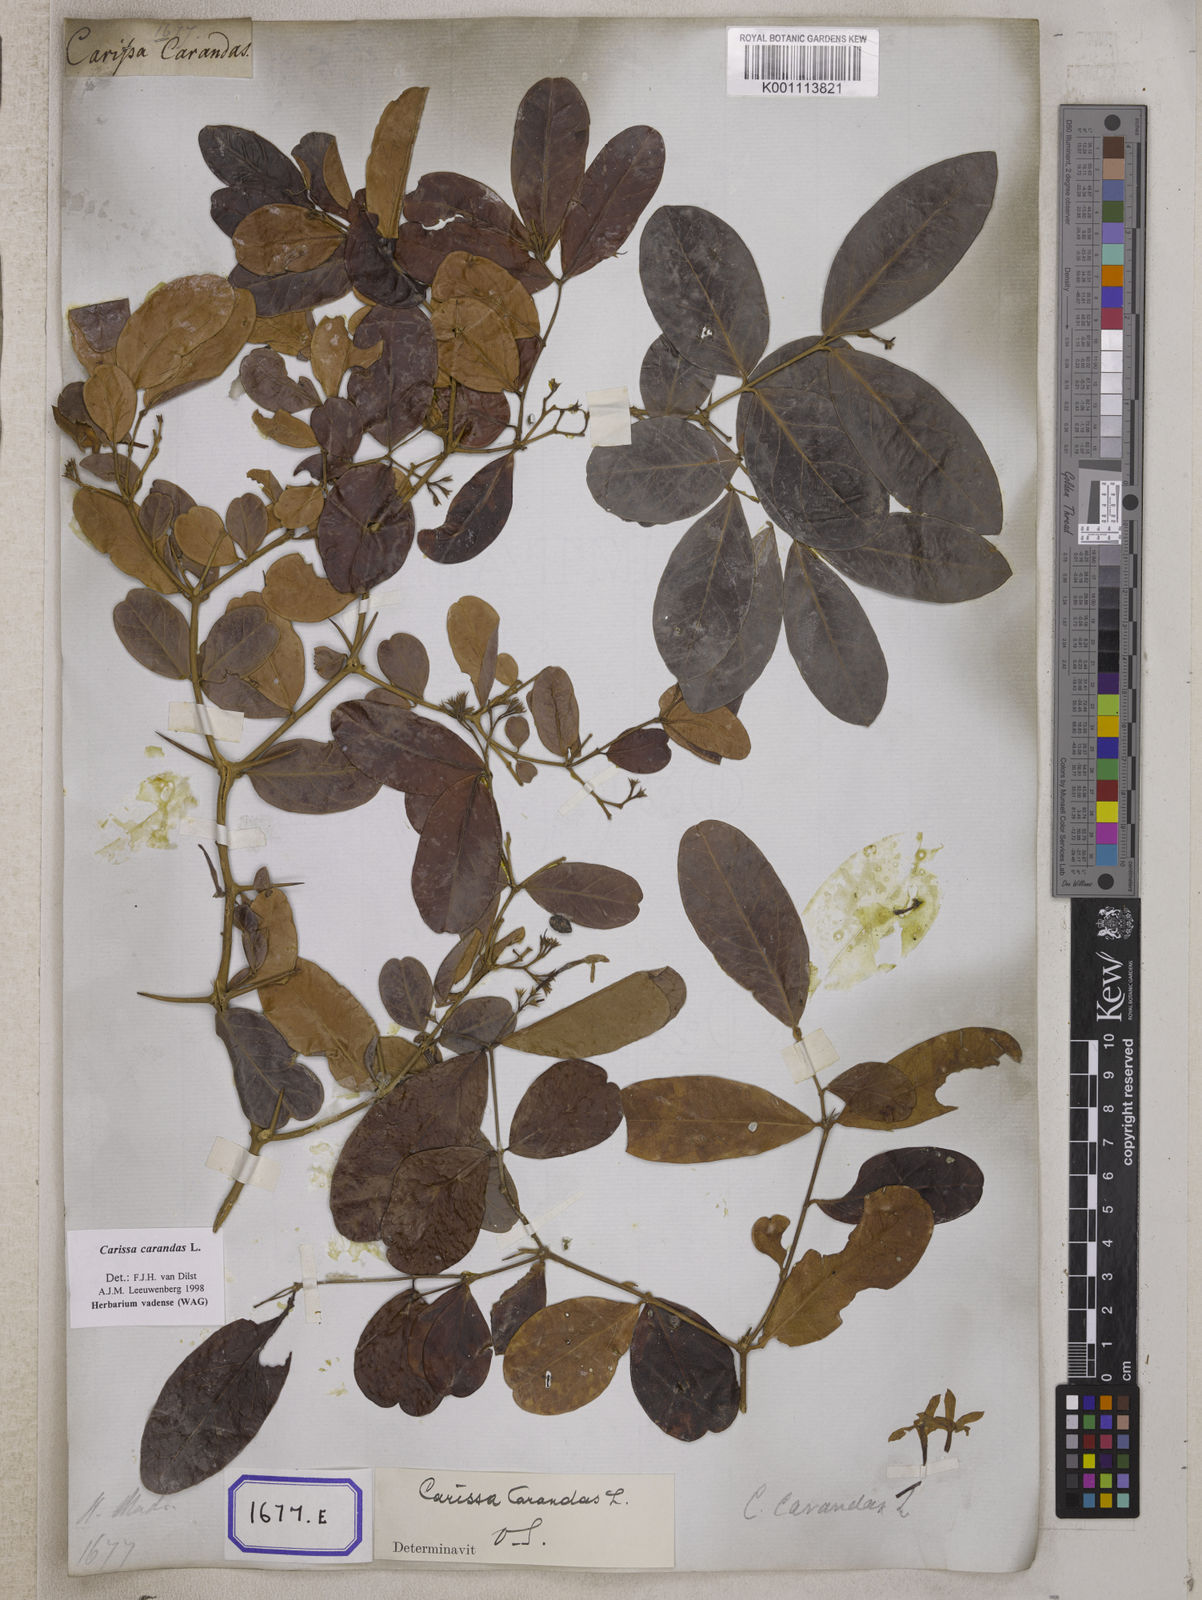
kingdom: Plantae
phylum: Tracheophyta
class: Magnoliopsida
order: Gentianales
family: Apocynaceae
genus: Carissa
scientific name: Carissa carandas
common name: Karanda
